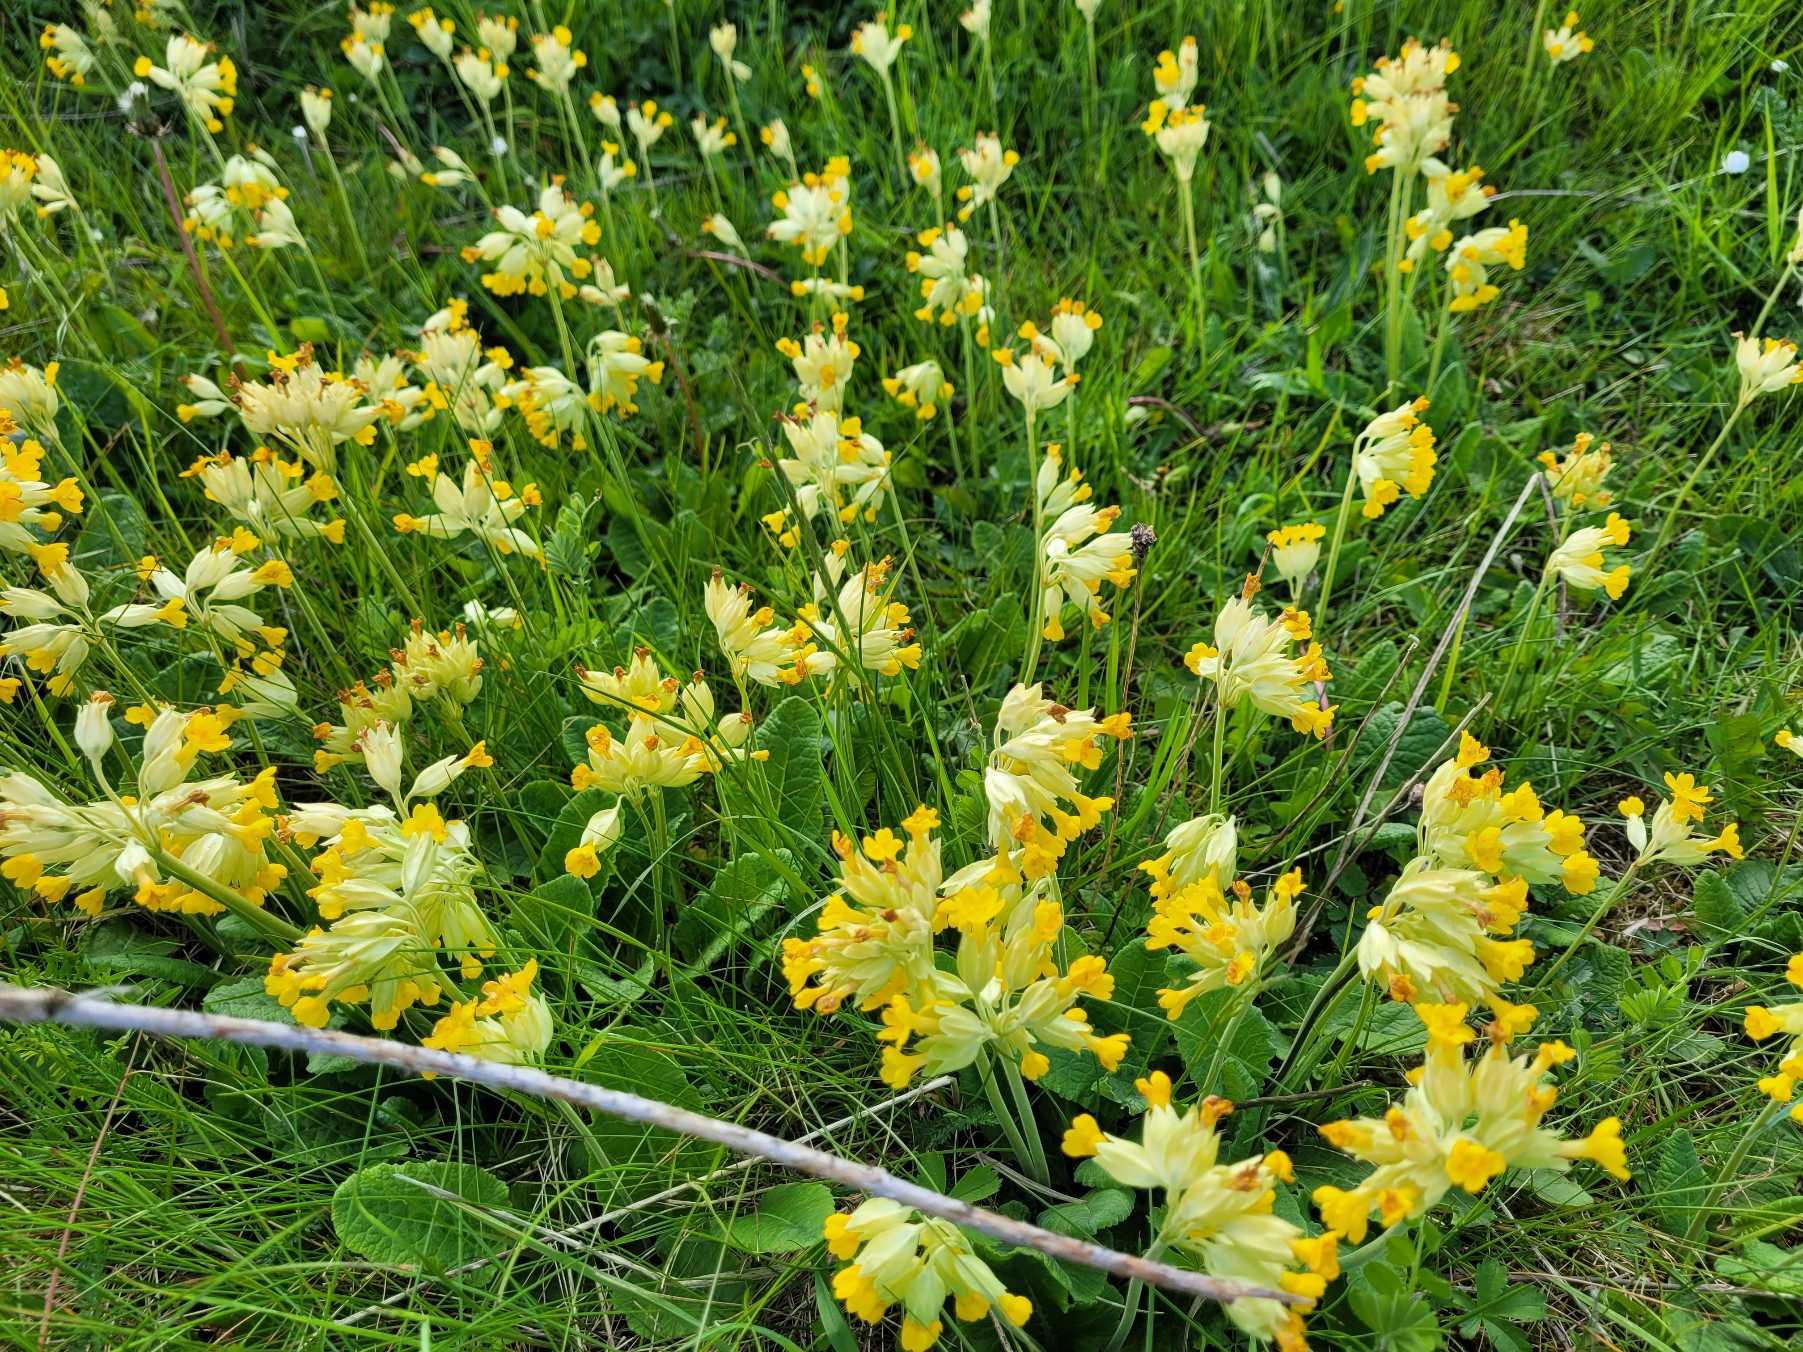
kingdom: Plantae
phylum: Tracheophyta
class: Magnoliopsida
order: Ericales
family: Primulaceae
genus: Primula
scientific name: Primula veris
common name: Hulkravet kodriver
